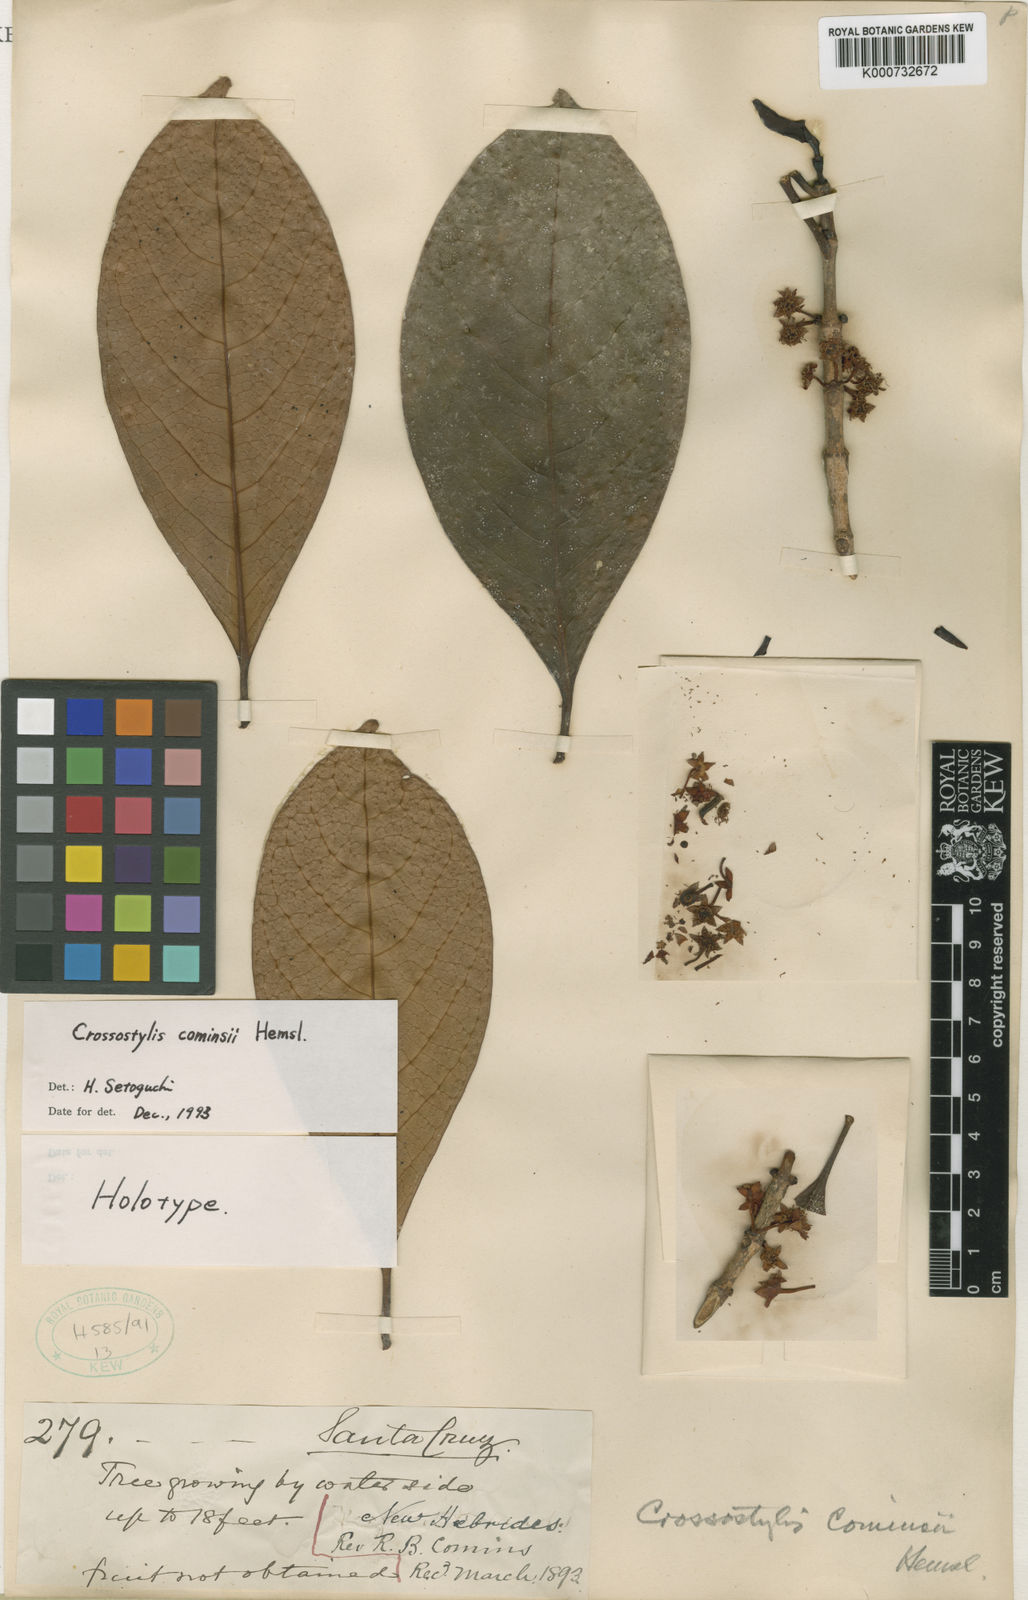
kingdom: Plantae
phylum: Tracheophyta
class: Magnoliopsida
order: Malpighiales
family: Rhizophoraceae
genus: Crossostylis
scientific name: Crossostylis cominsii
